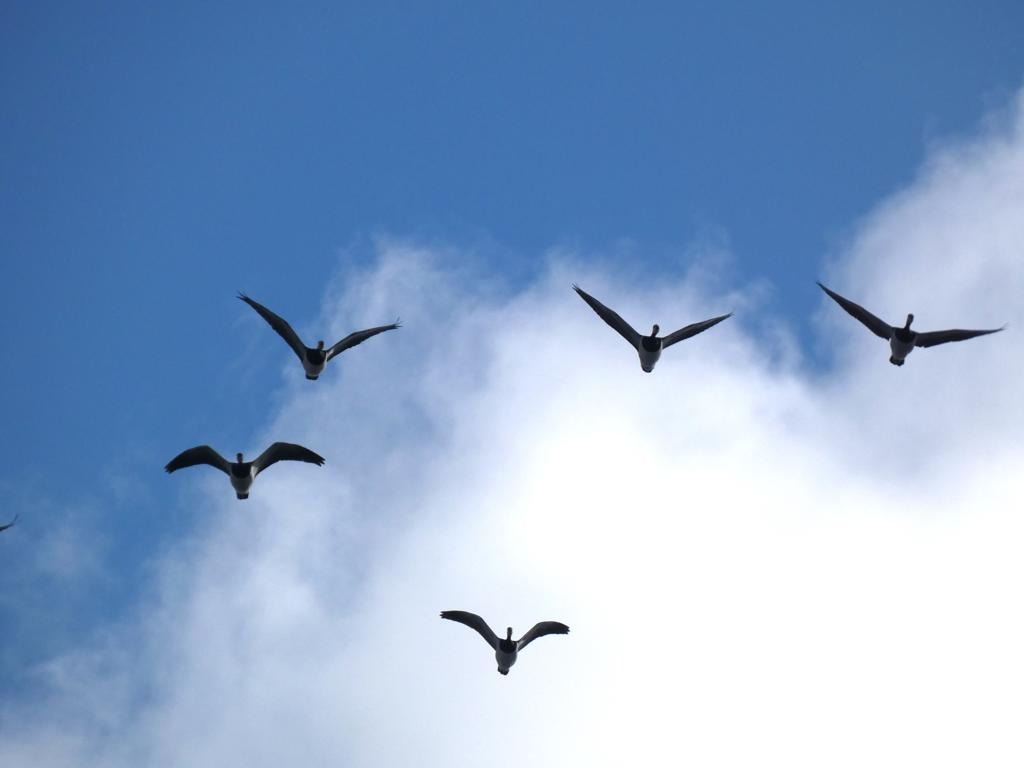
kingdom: Animalia
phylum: Chordata
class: Aves
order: Anseriformes
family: Anatidae
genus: Branta
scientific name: Branta leucopsis
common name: Bramgås
